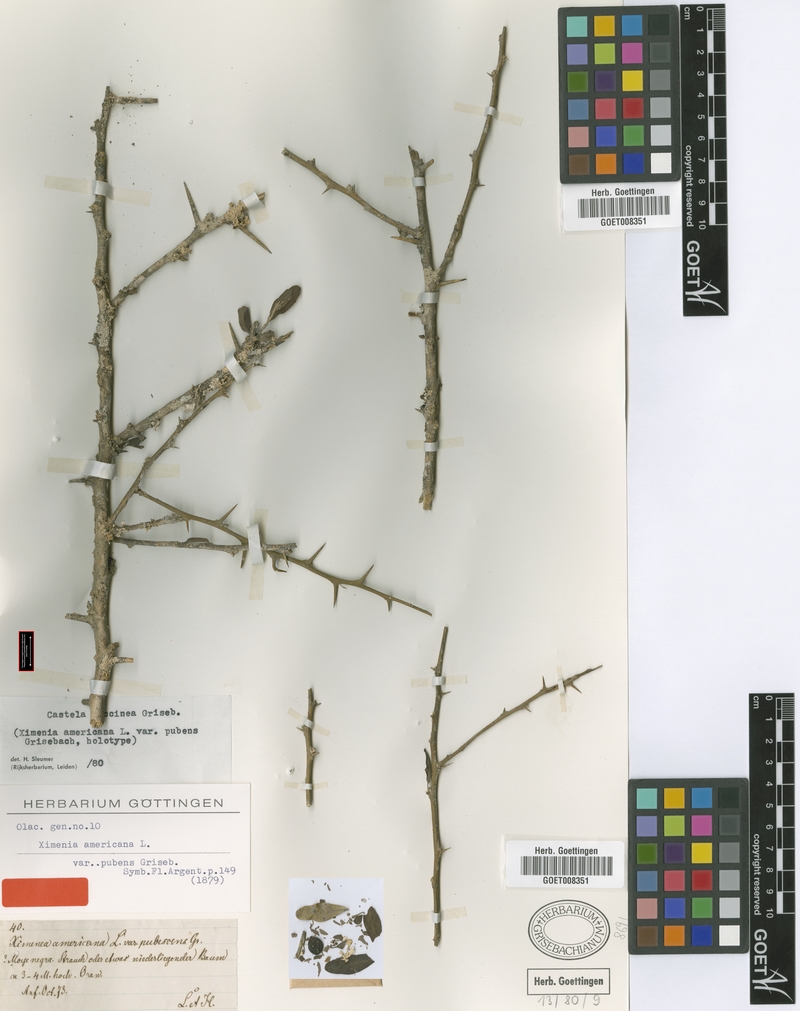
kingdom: Plantae
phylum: Tracheophyta
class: Magnoliopsida
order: Sapindales
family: Simaroubaceae
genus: Castela
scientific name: Castela coccinea
